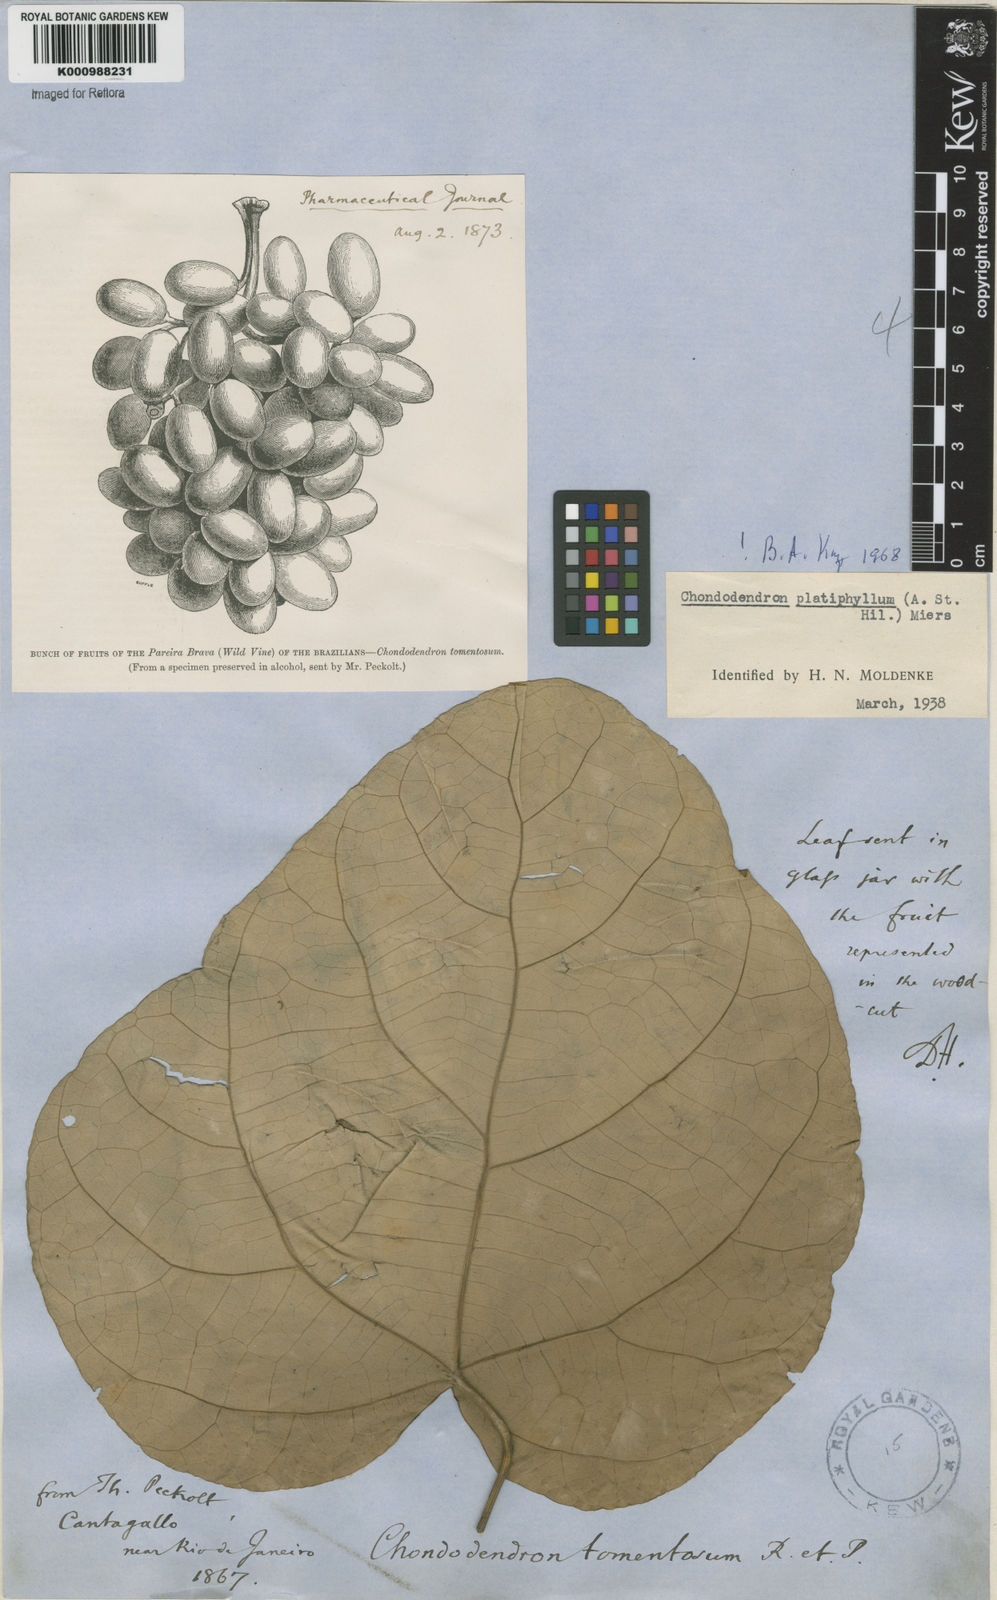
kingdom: Plantae
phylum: Tracheophyta
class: Magnoliopsida
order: Ranunculales
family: Menispermaceae
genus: Chondrodendron
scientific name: Chondrodendron platyphyllum
